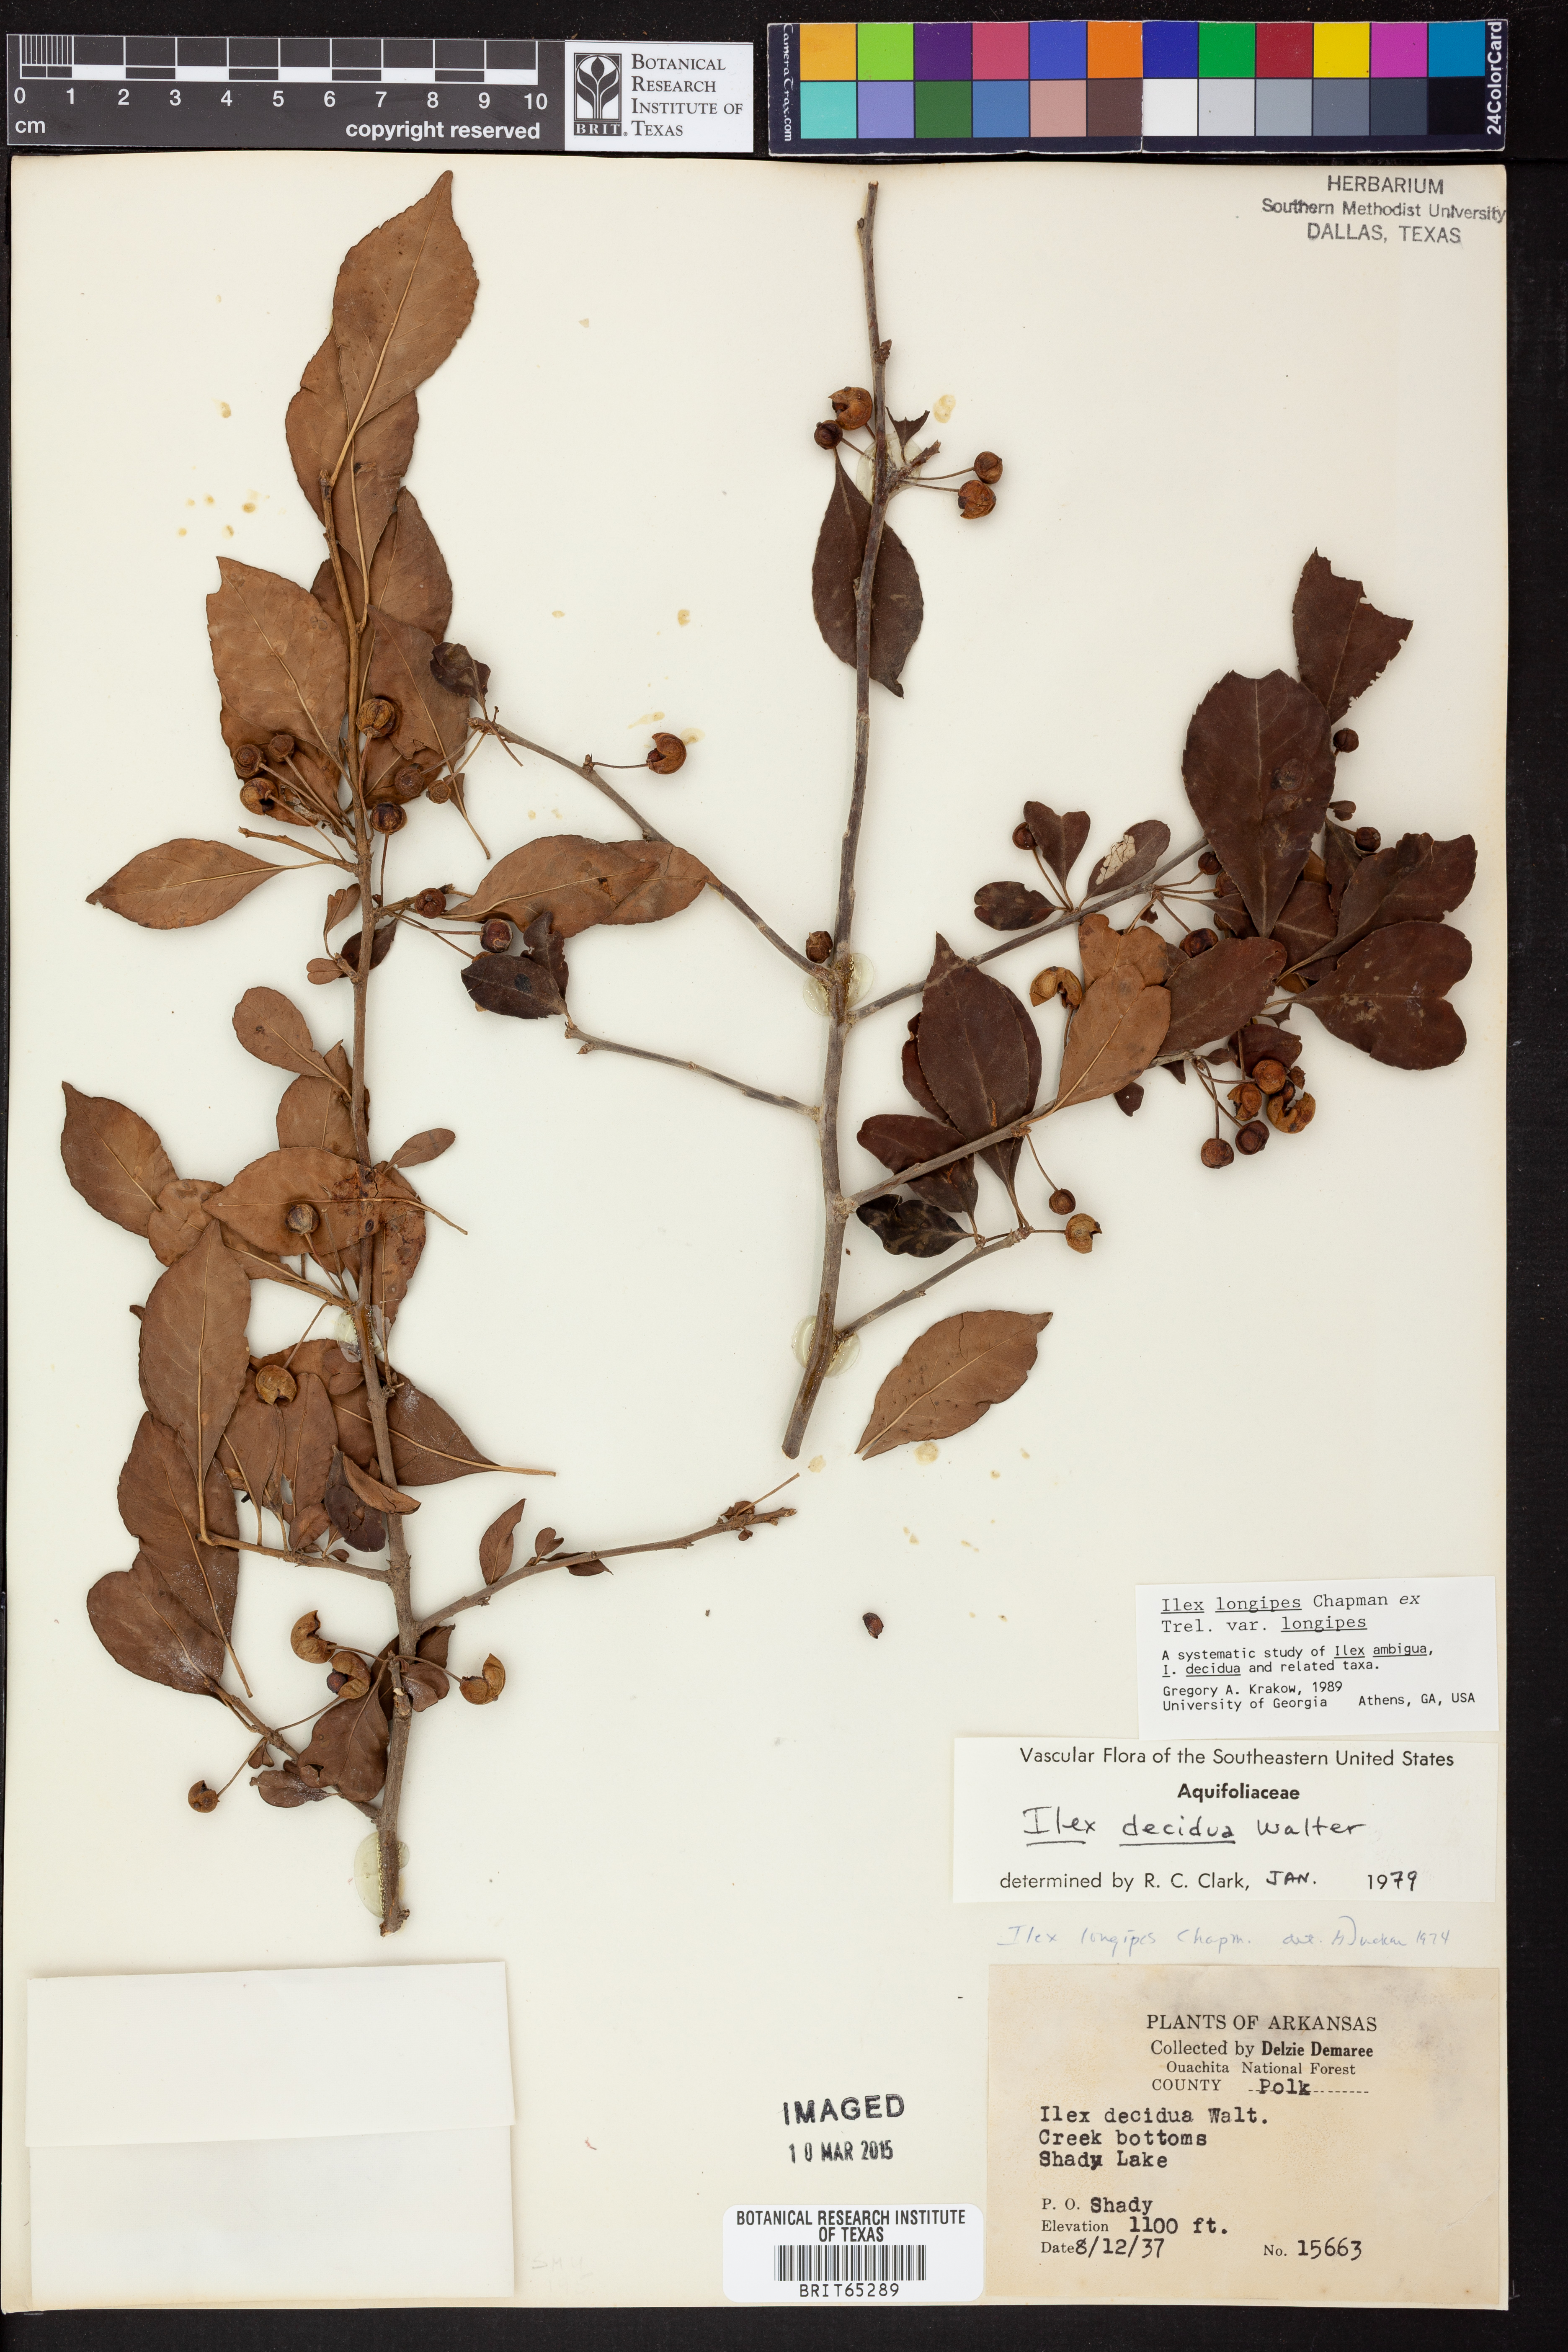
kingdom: Plantae
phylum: Tracheophyta
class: Magnoliopsida
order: Aquifoliales
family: Aquifoliaceae
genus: Ilex
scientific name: Ilex longipes
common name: Georgia holly
